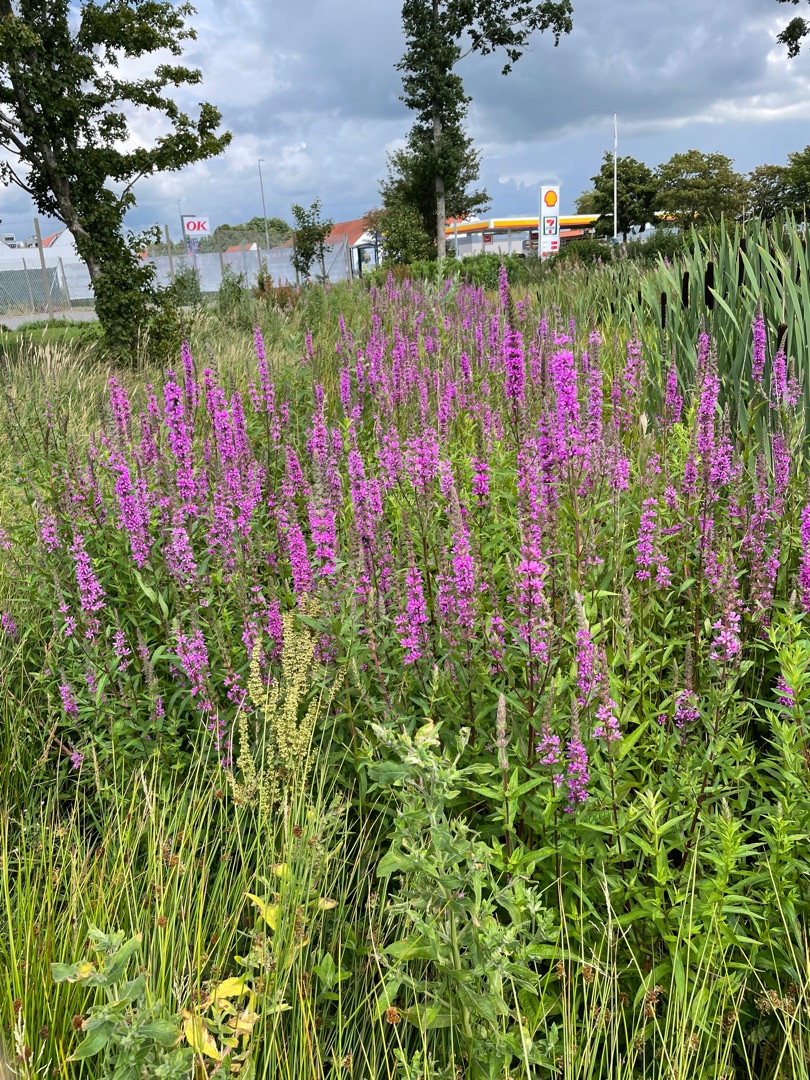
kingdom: Plantae
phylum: Tracheophyta
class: Magnoliopsida
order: Myrtales
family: Lythraceae
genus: Lythrum
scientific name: Lythrum salicaria
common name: Kattehale
